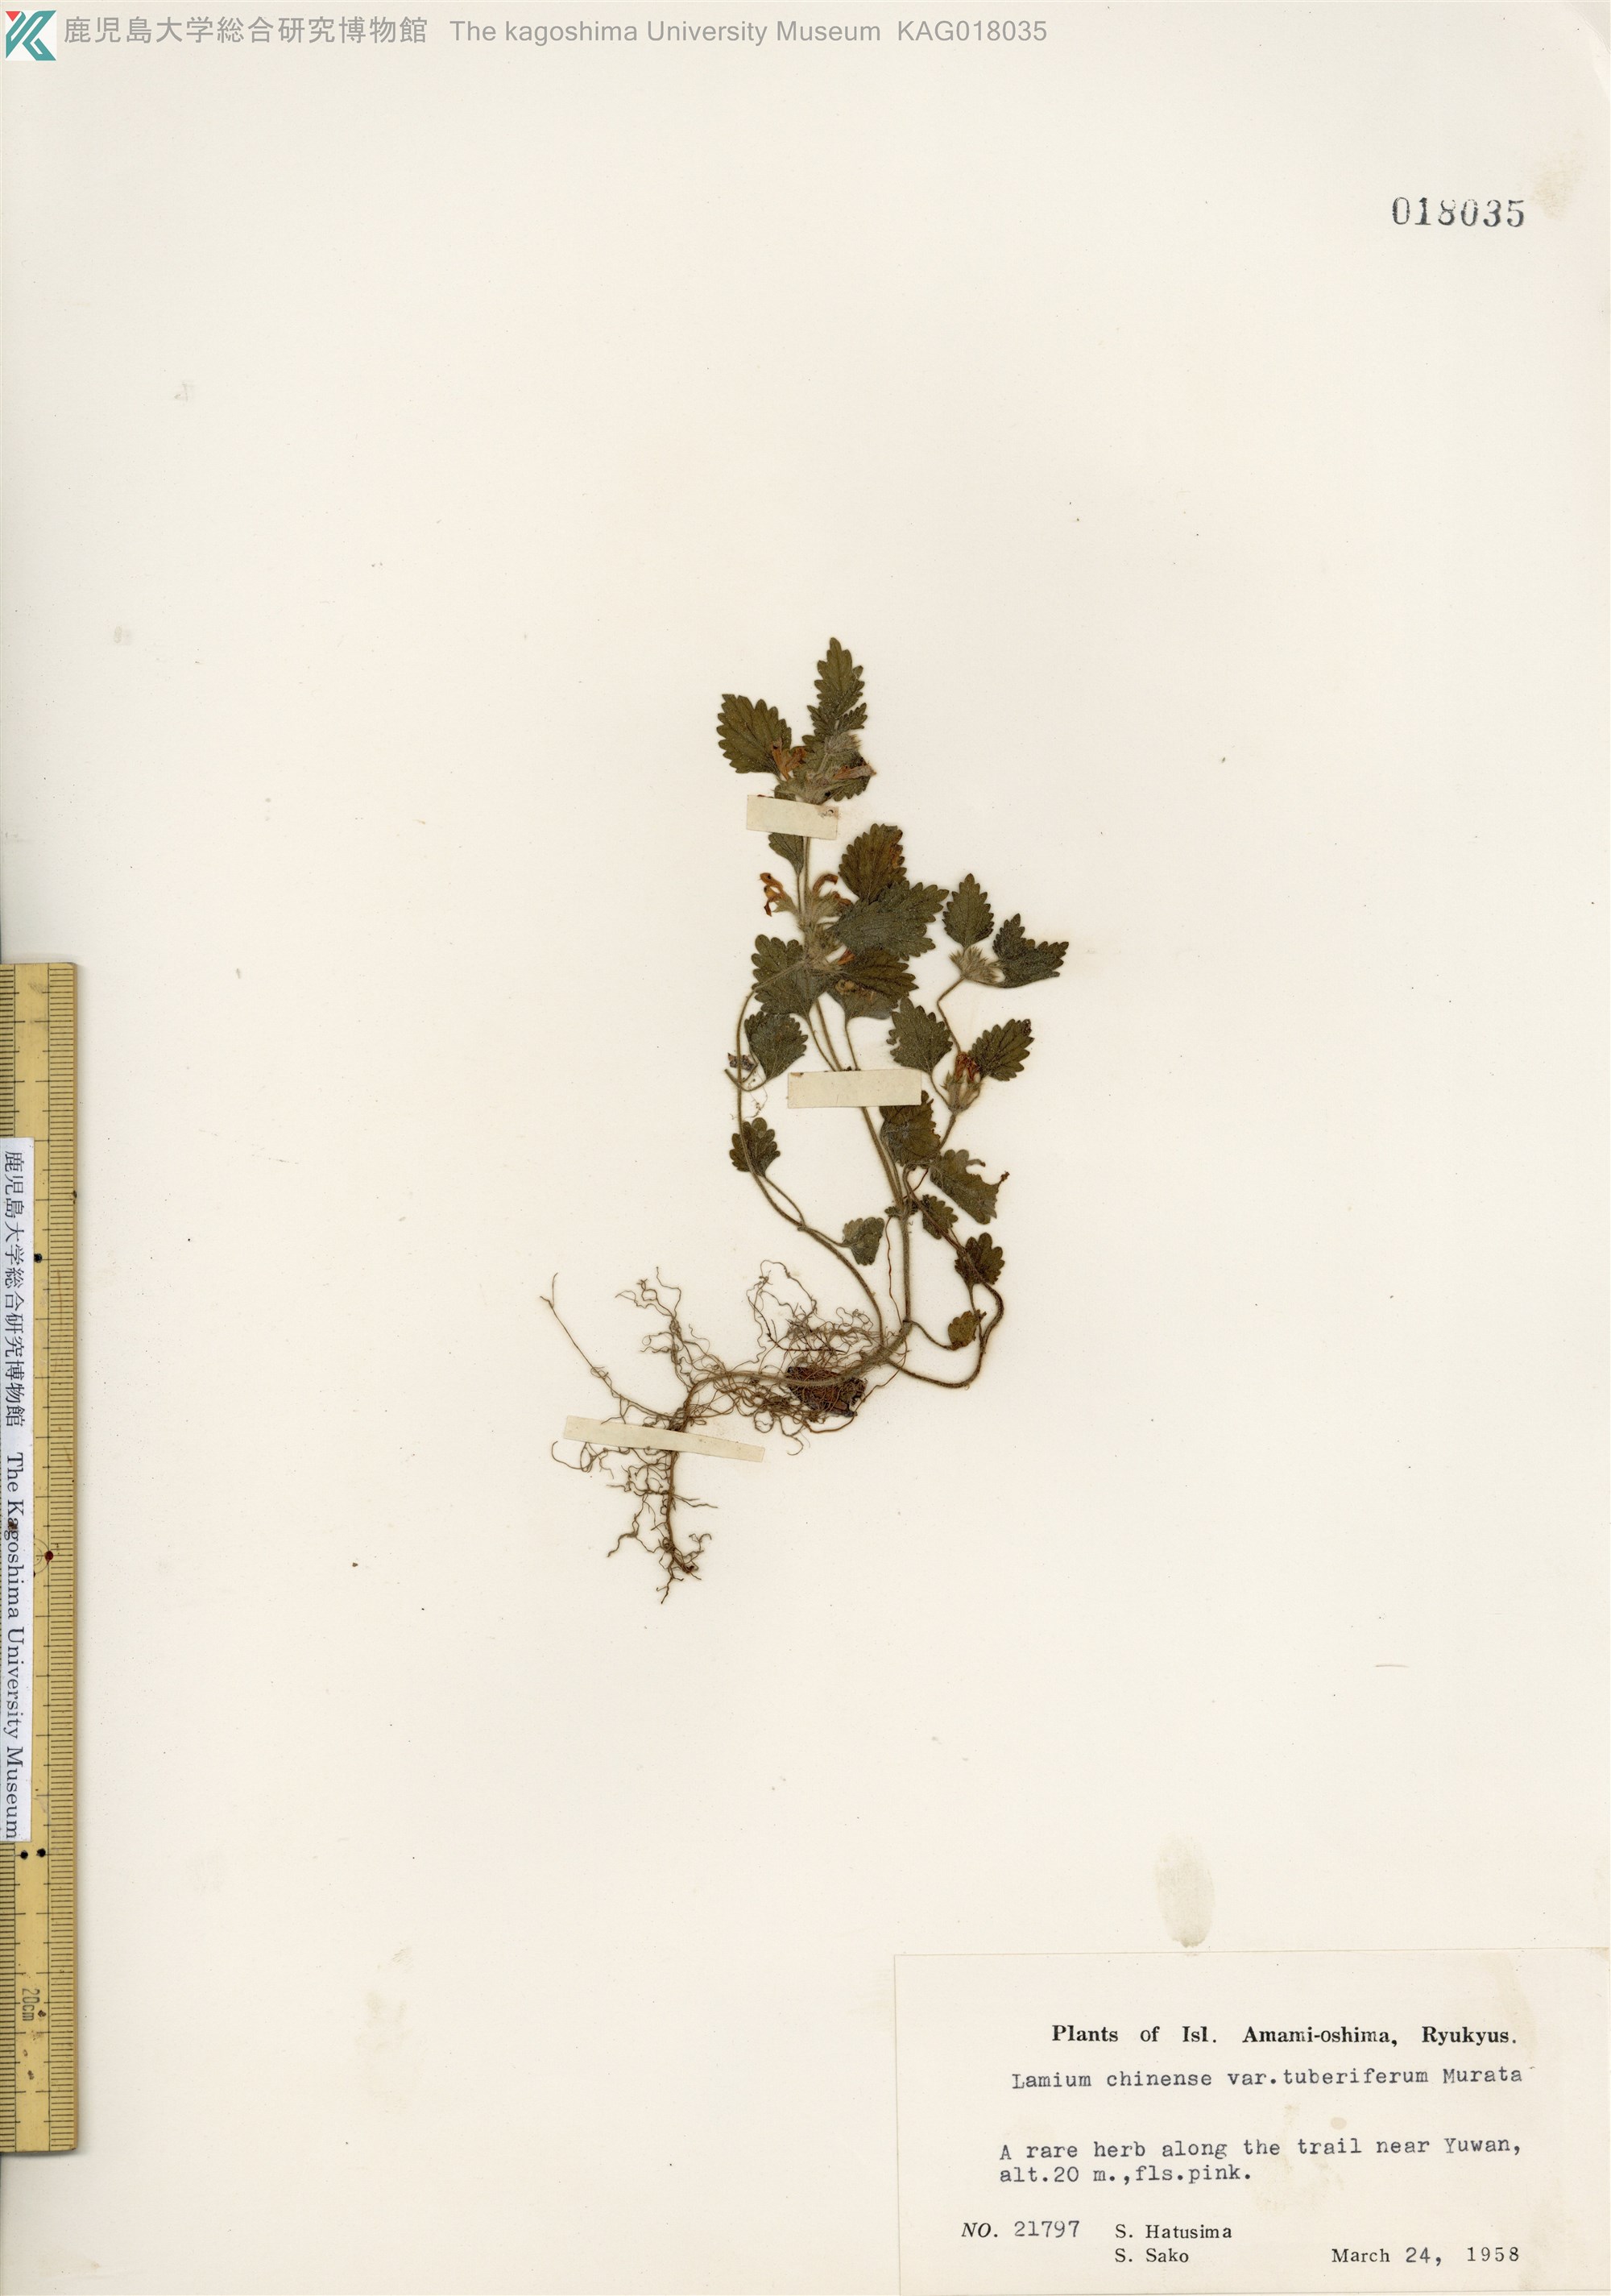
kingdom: Plantae
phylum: Tracheophyta
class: Magnoliopsida
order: Lamiales
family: Lamiaceae
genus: Matsumurella
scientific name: Matsumurella tuberifera
